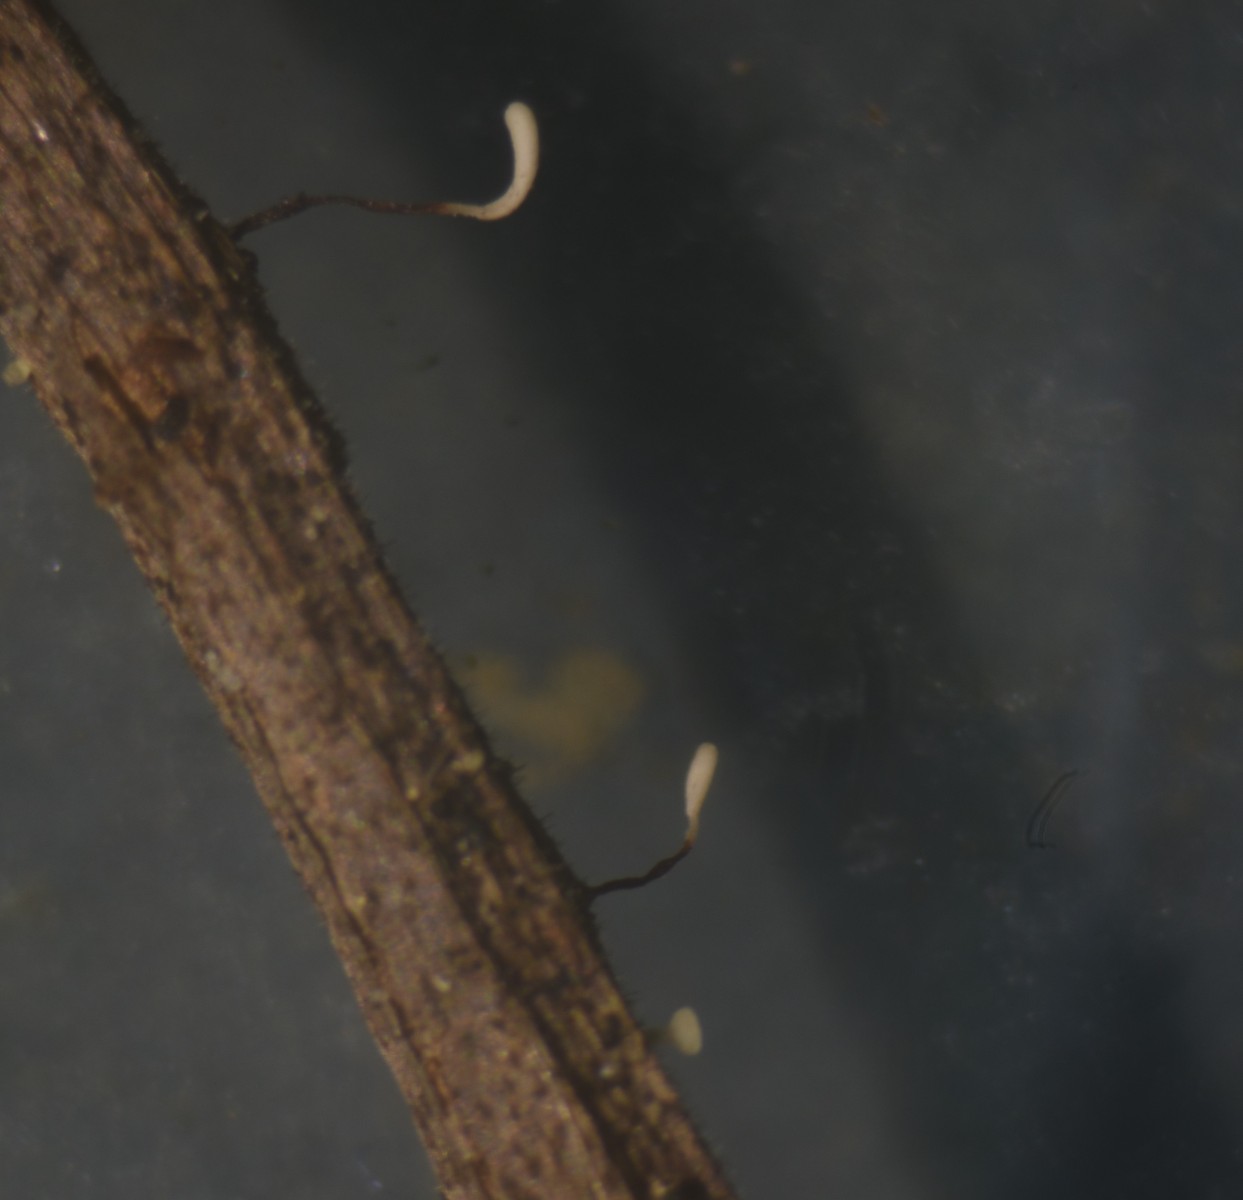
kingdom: Fungi
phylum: Basidiomycota
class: Agaricomycetes
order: Agaricales
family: Typhulaceae
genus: Typhula
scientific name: Typhula erythropus
